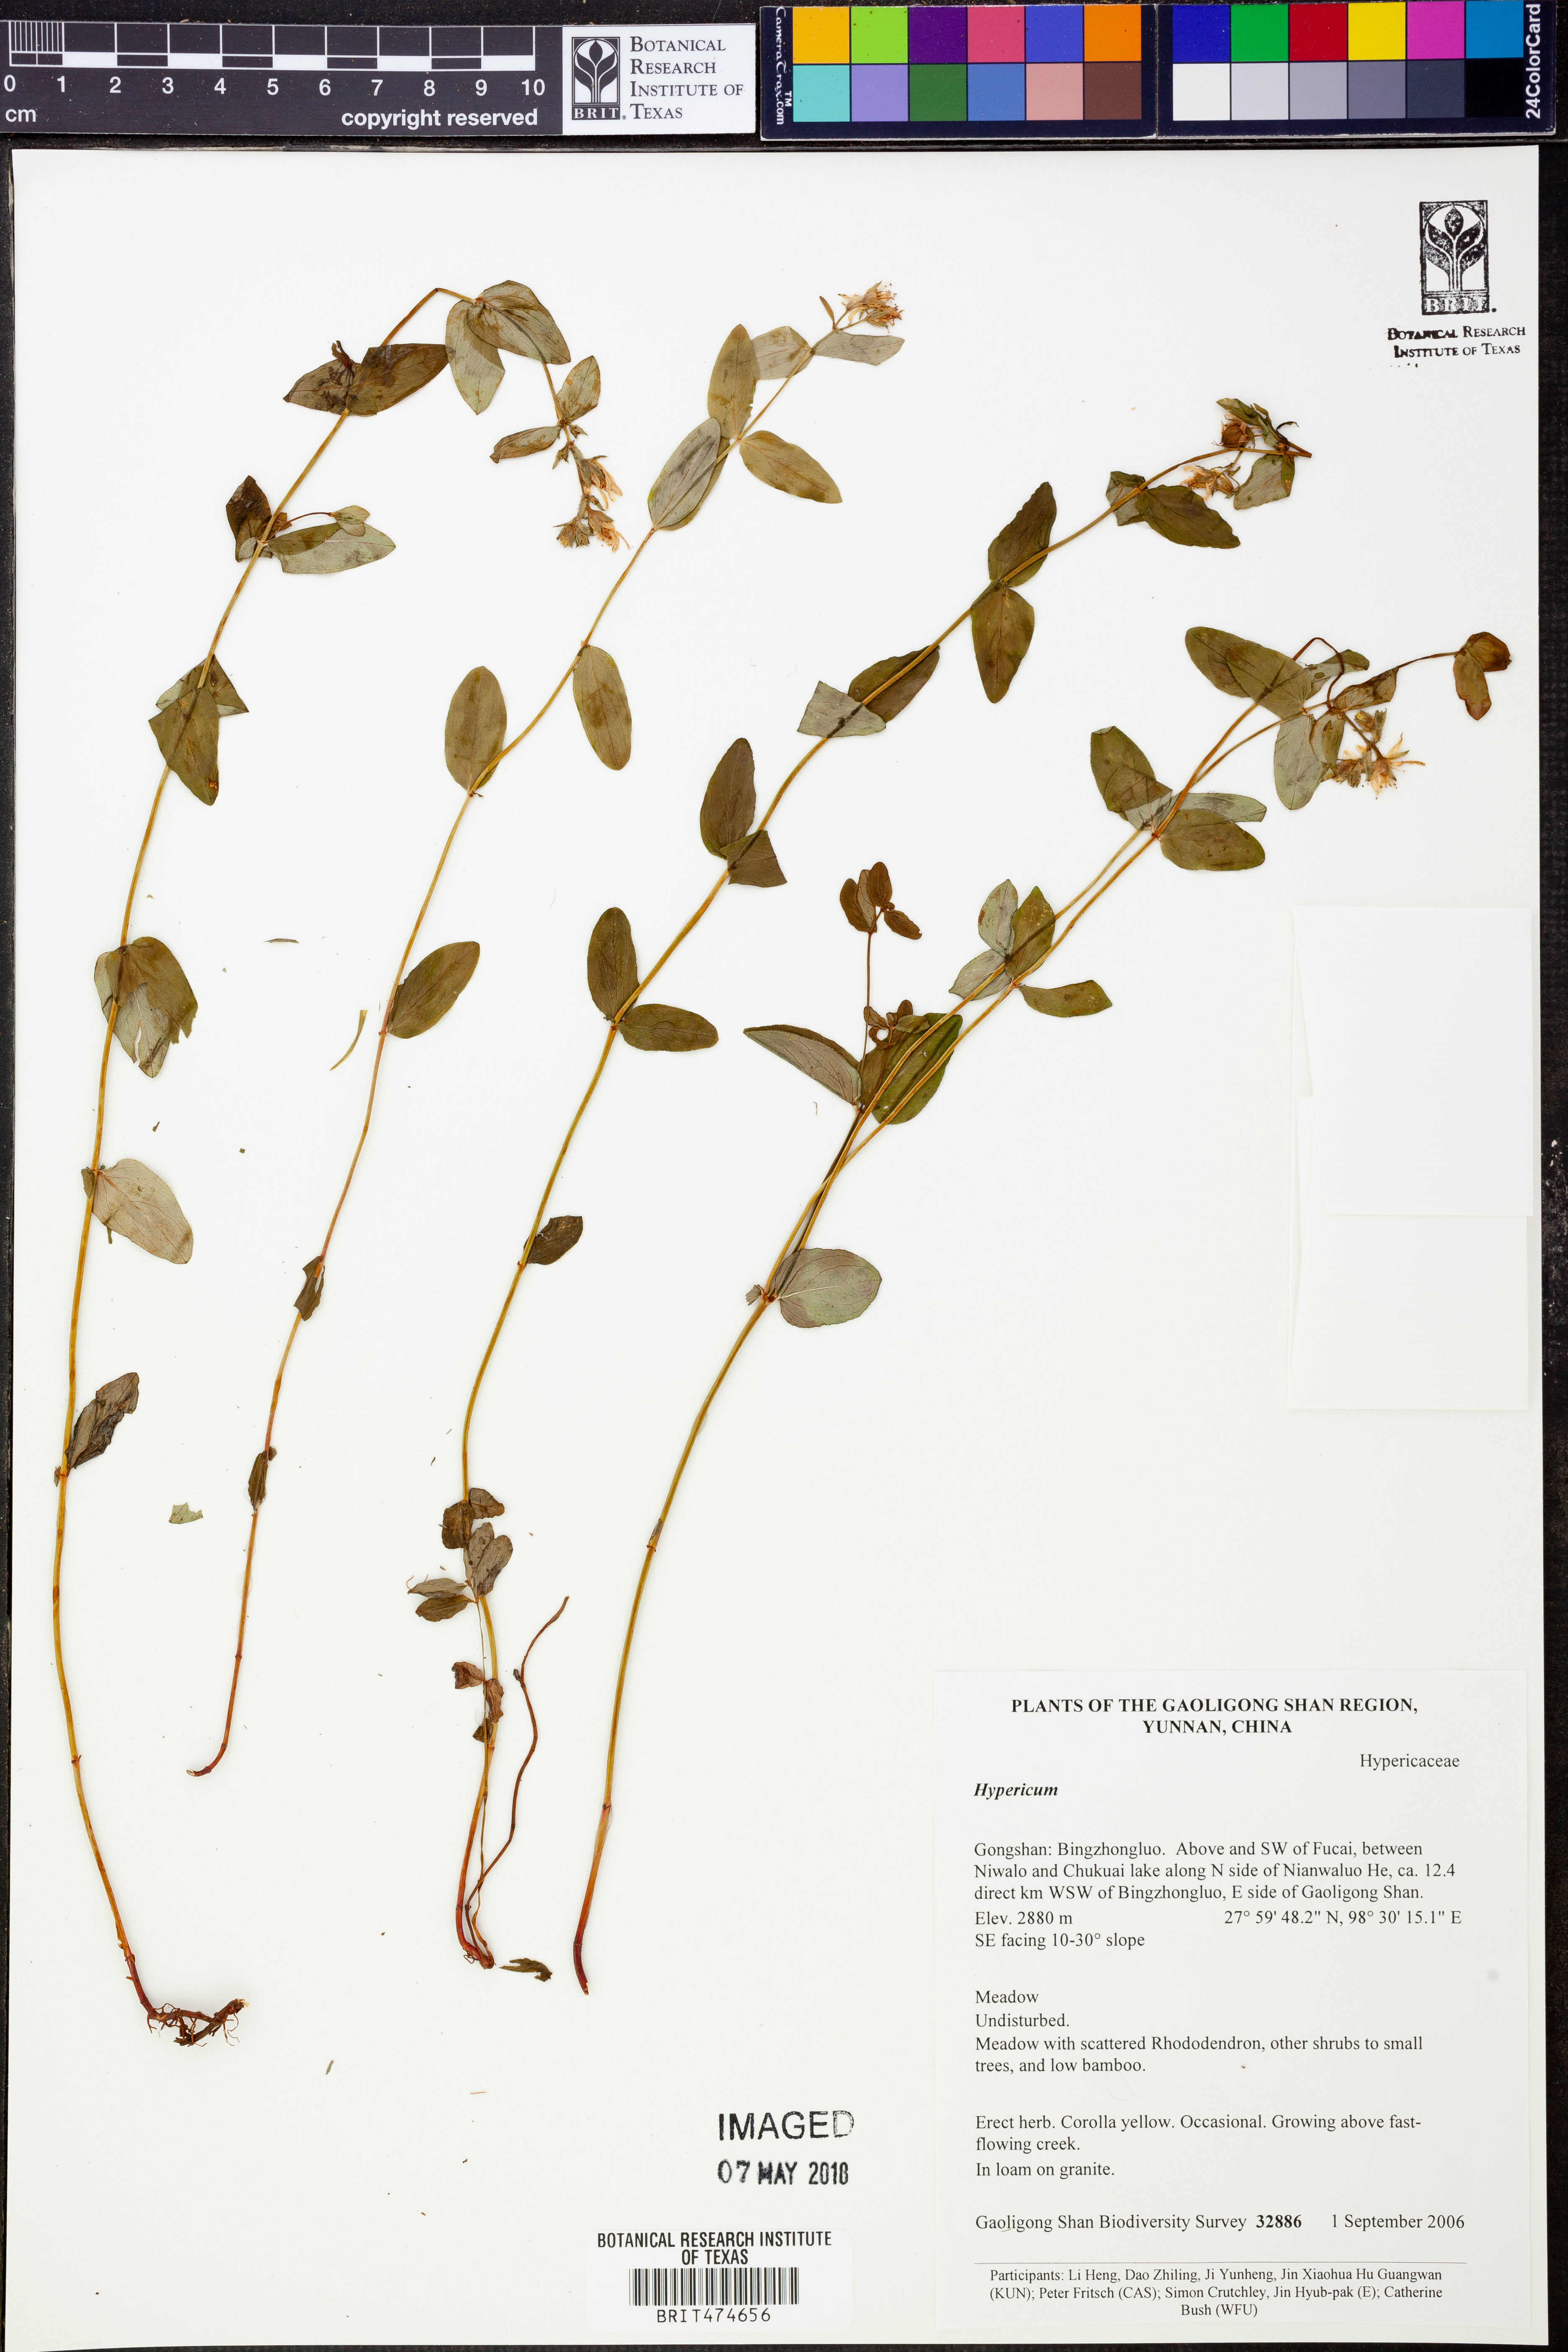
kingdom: Plantae
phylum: Tracheophyta
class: Magnoliopsida
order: Malpighiales
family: Hypericaceae
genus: Hypericum
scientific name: Hypericum
